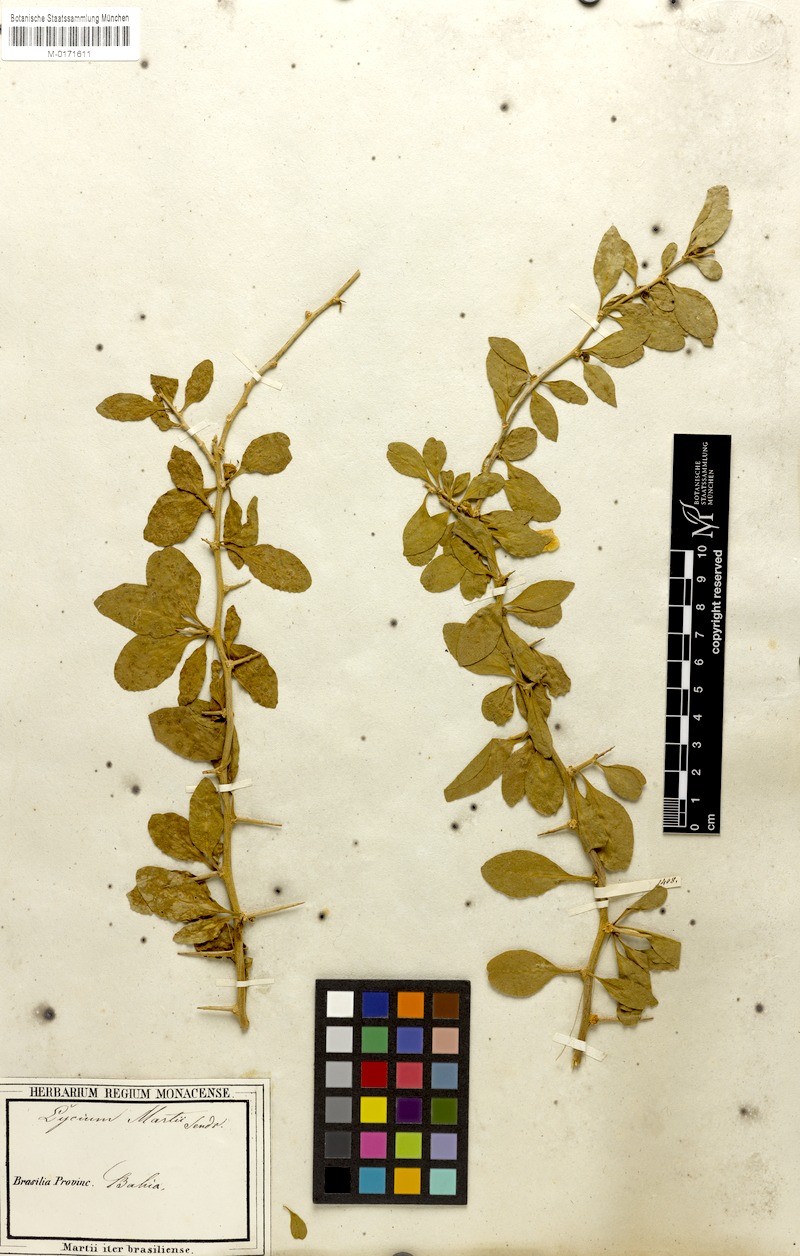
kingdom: Plantae
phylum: Tracheophyta
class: Magnoliopsida
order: Solanales
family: Solanaceae
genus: Lycium
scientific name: Lycium martii
